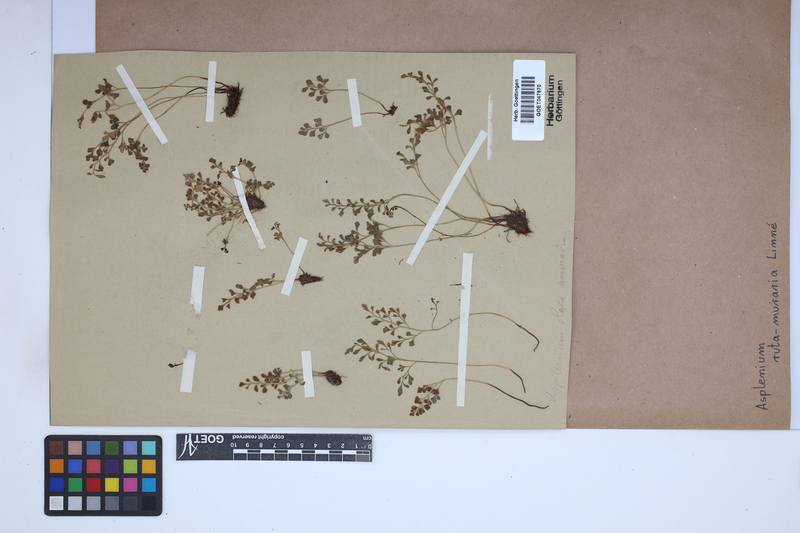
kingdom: Plantae
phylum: Tracheophyta
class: Polypodiopsida
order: Polypodiales
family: Aspleniaceae
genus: Asplenium
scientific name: Asplenium ruta-muraria
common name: Wall-rue
